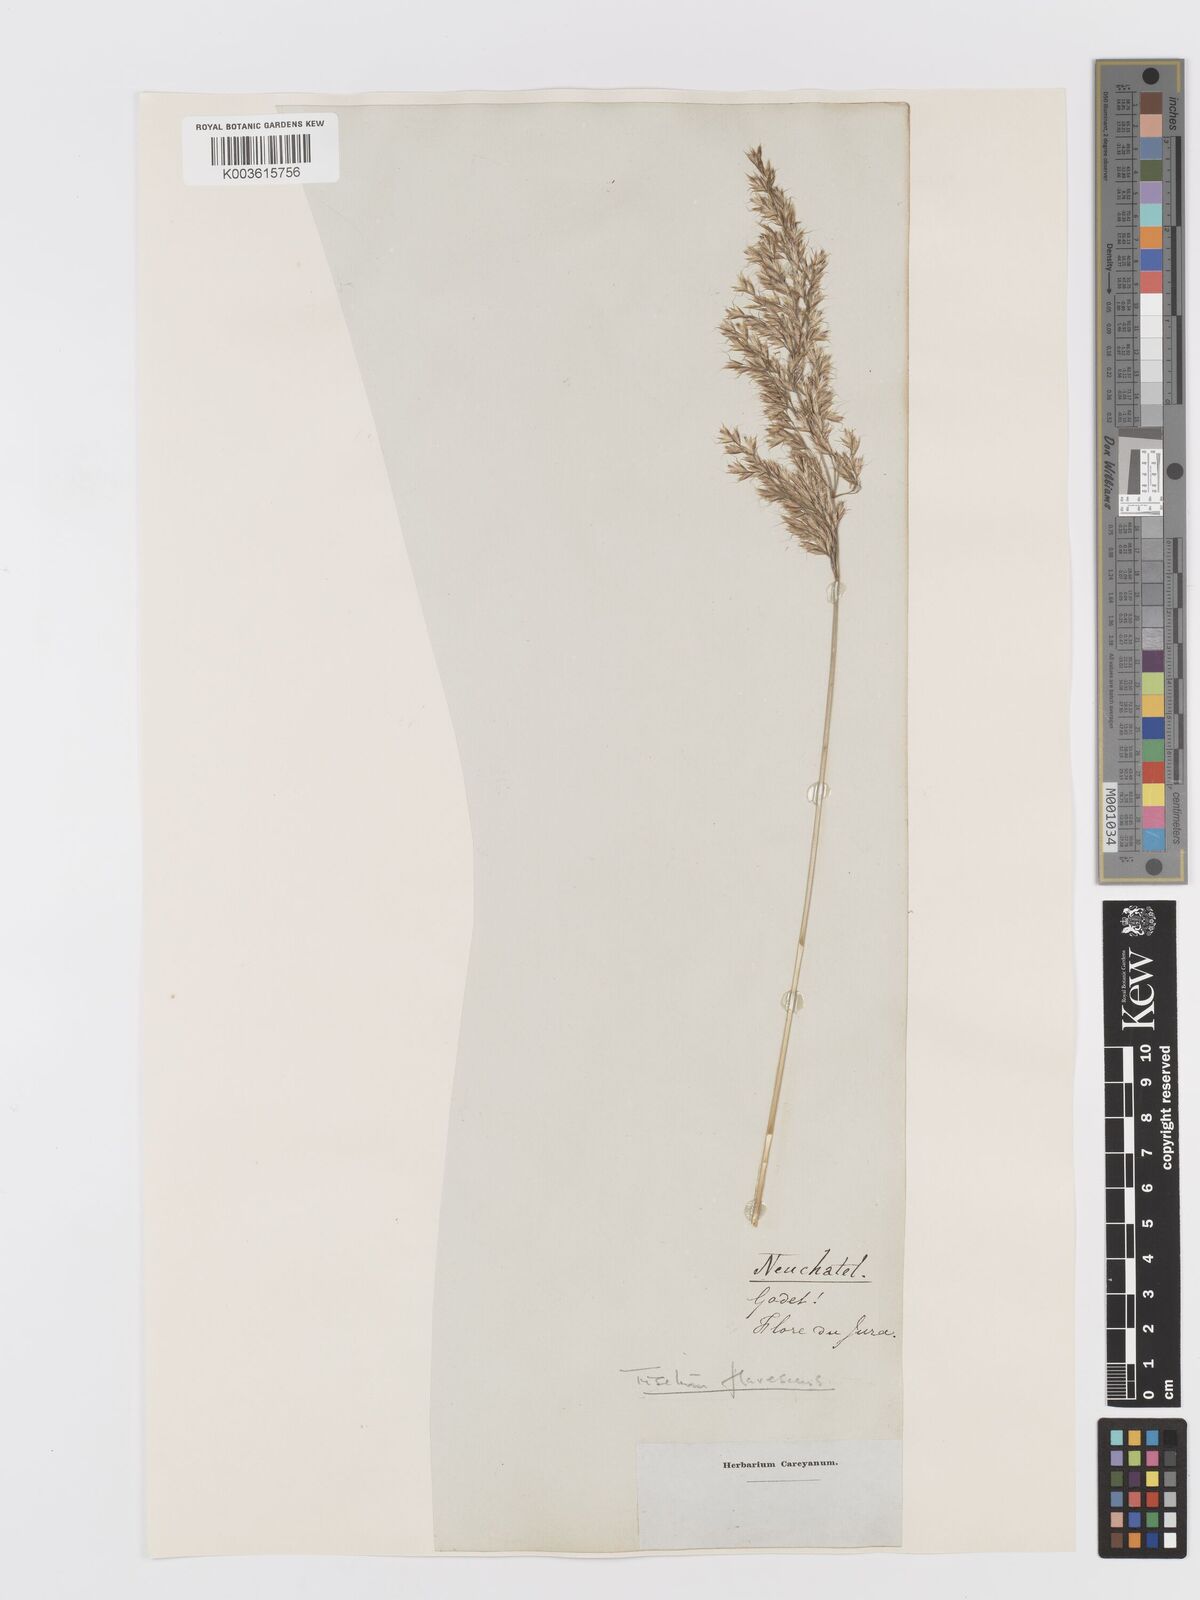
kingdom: Plantae
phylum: Tracheophyta
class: Liliopsida
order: Poales
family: Poaceae
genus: Trisetum
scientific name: Trisetum flavescens
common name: Yellow oat-grass
